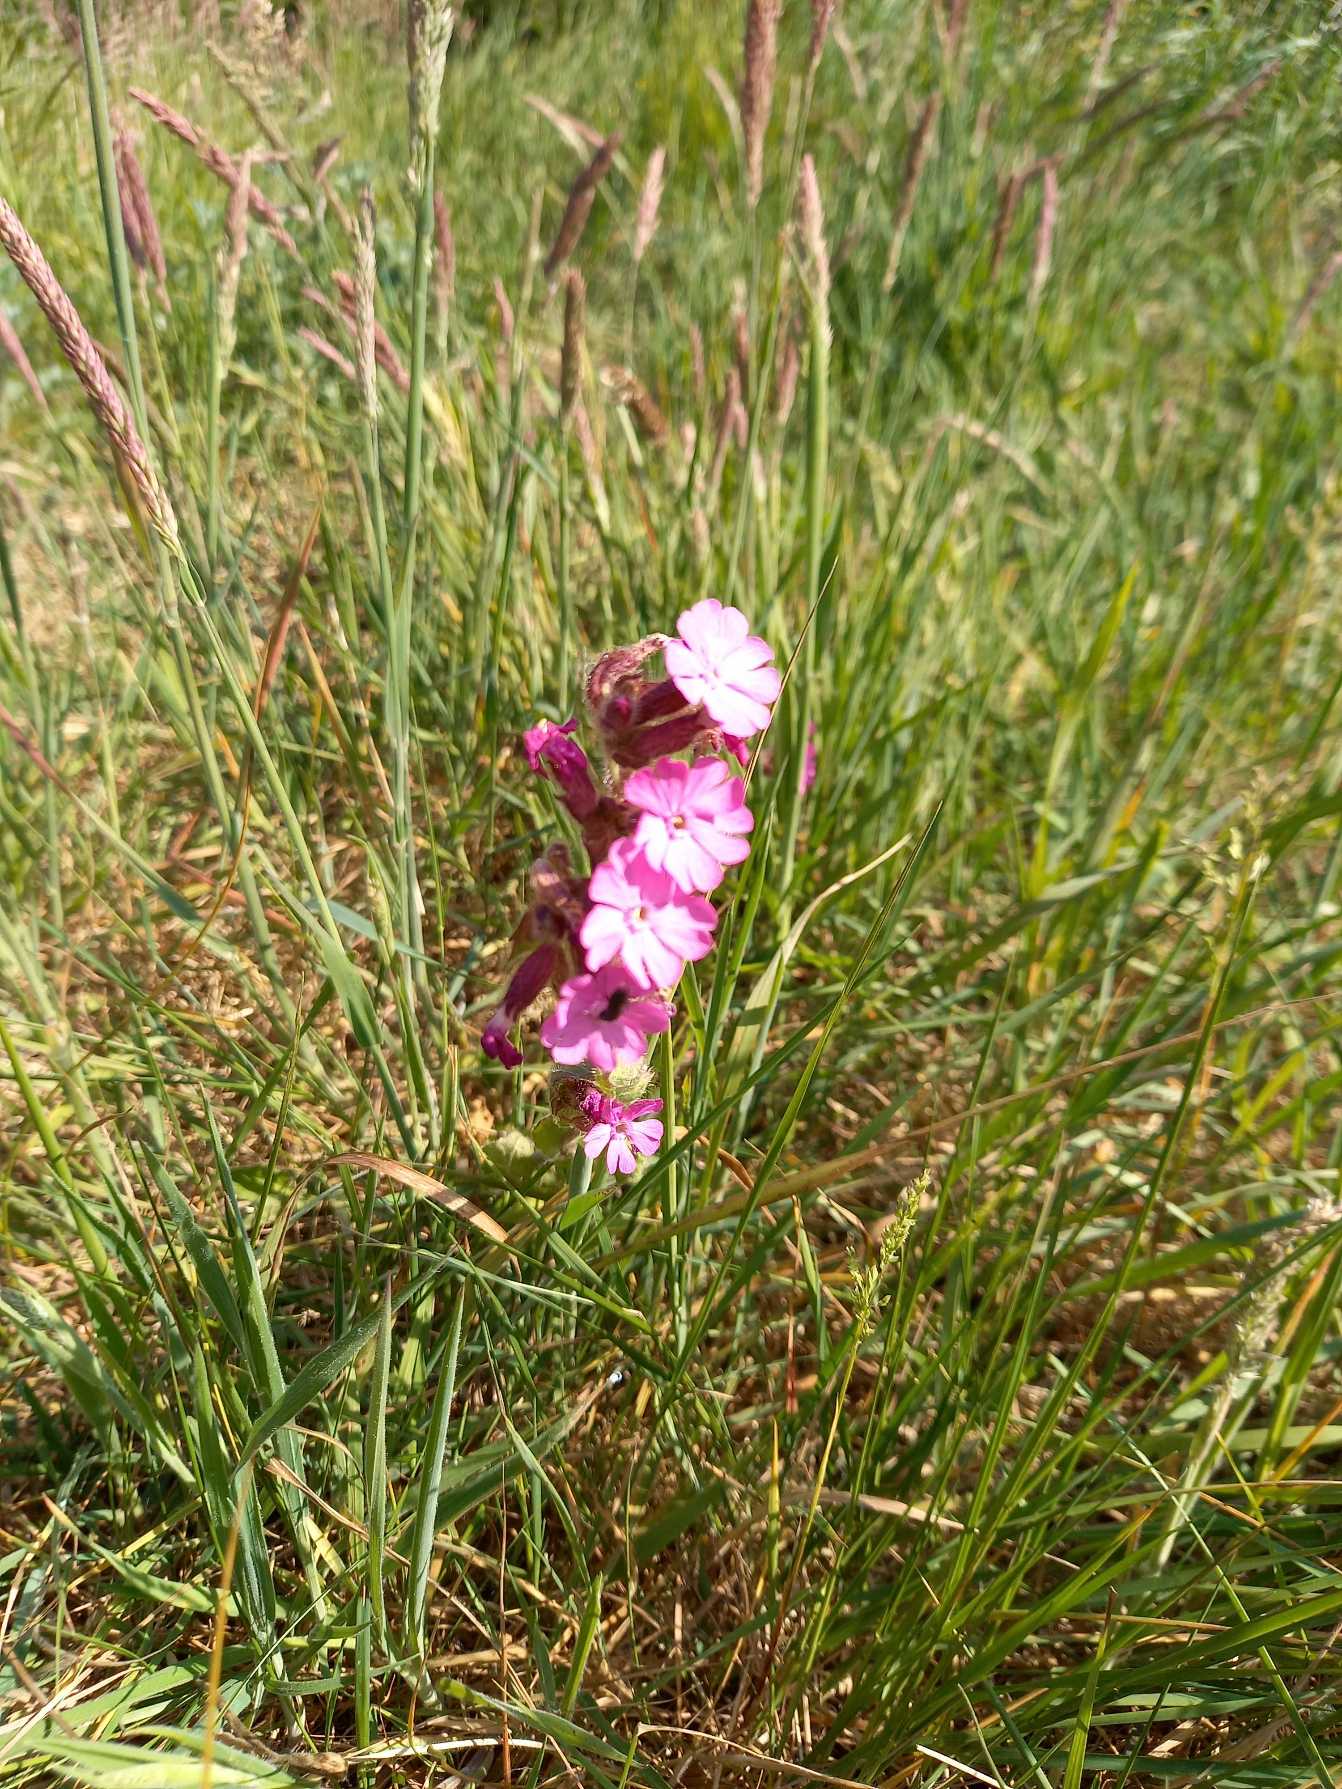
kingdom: Plantae
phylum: Tracheophyta
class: Magnoliopsida
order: Caryophyllales
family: Caryophyllaceae
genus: Silene
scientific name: Silene dioica
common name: Dagpragtstjerne
